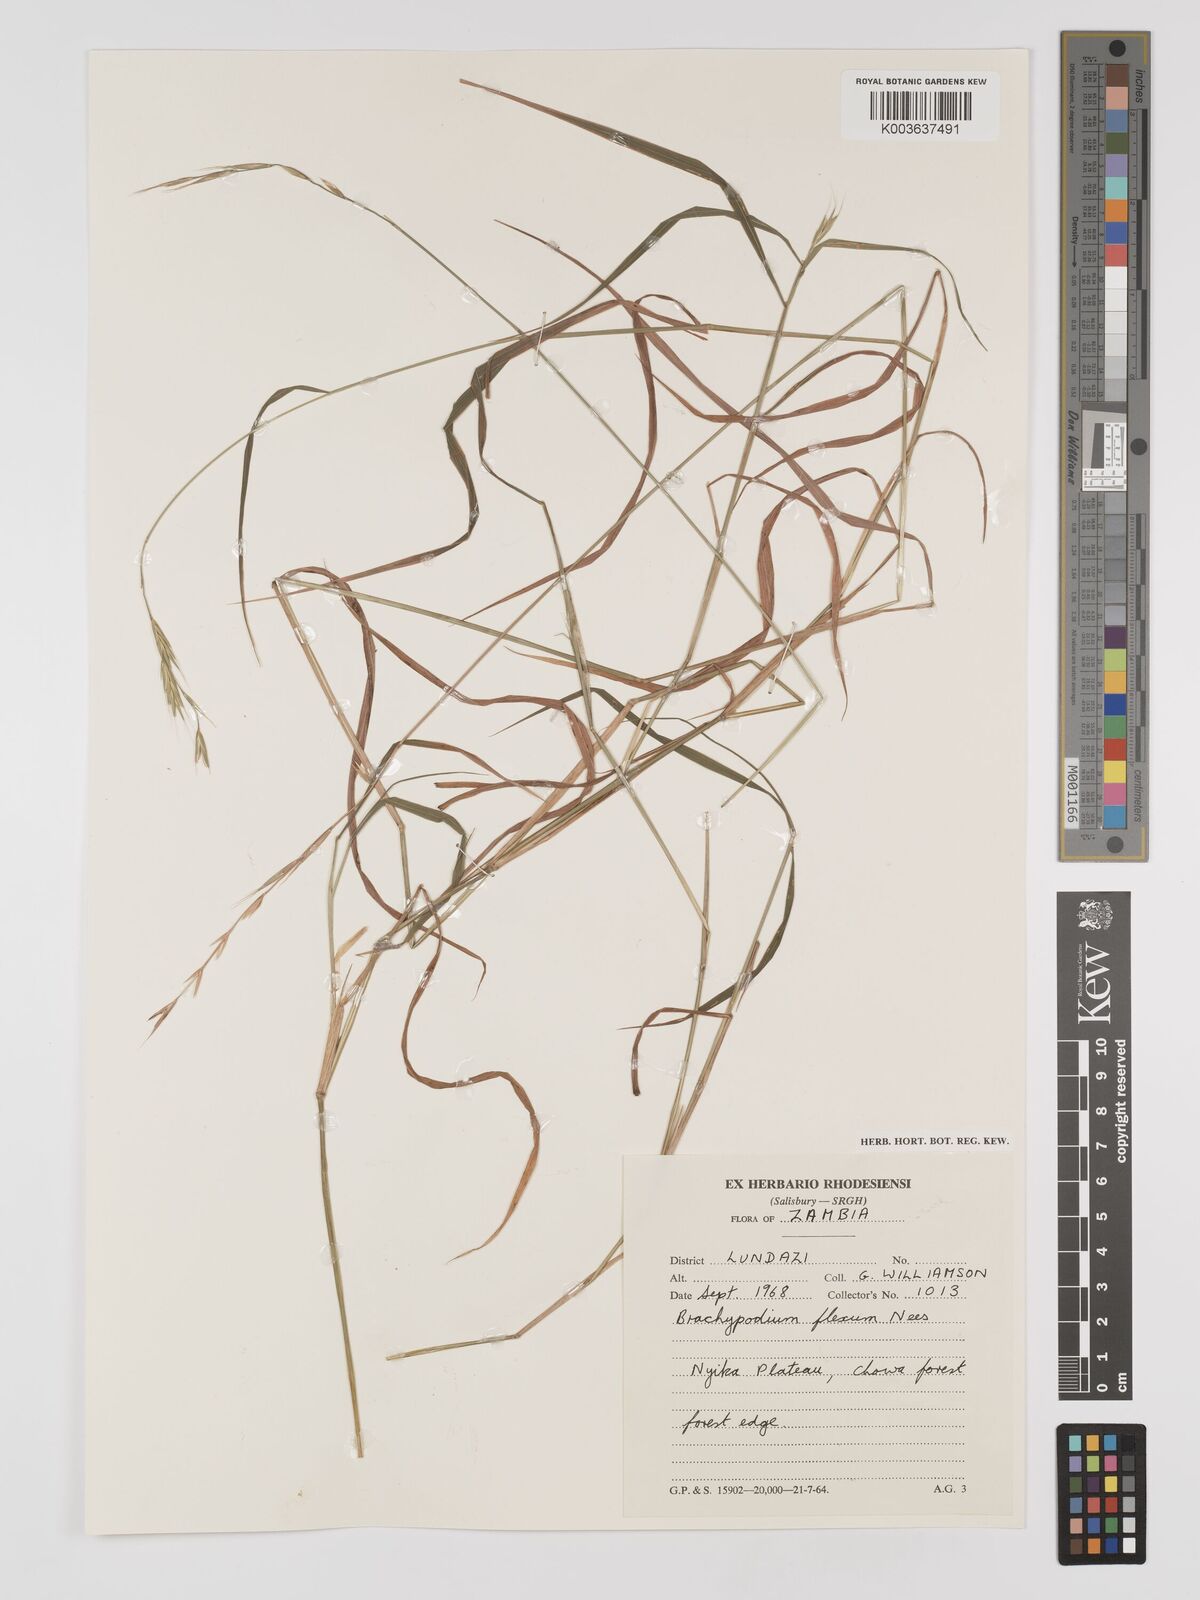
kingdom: Plantae
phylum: Tracheophyta
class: Liliopsida
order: Poales
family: Poaceae
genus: Brachypodium
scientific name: Brachypodium flexum
